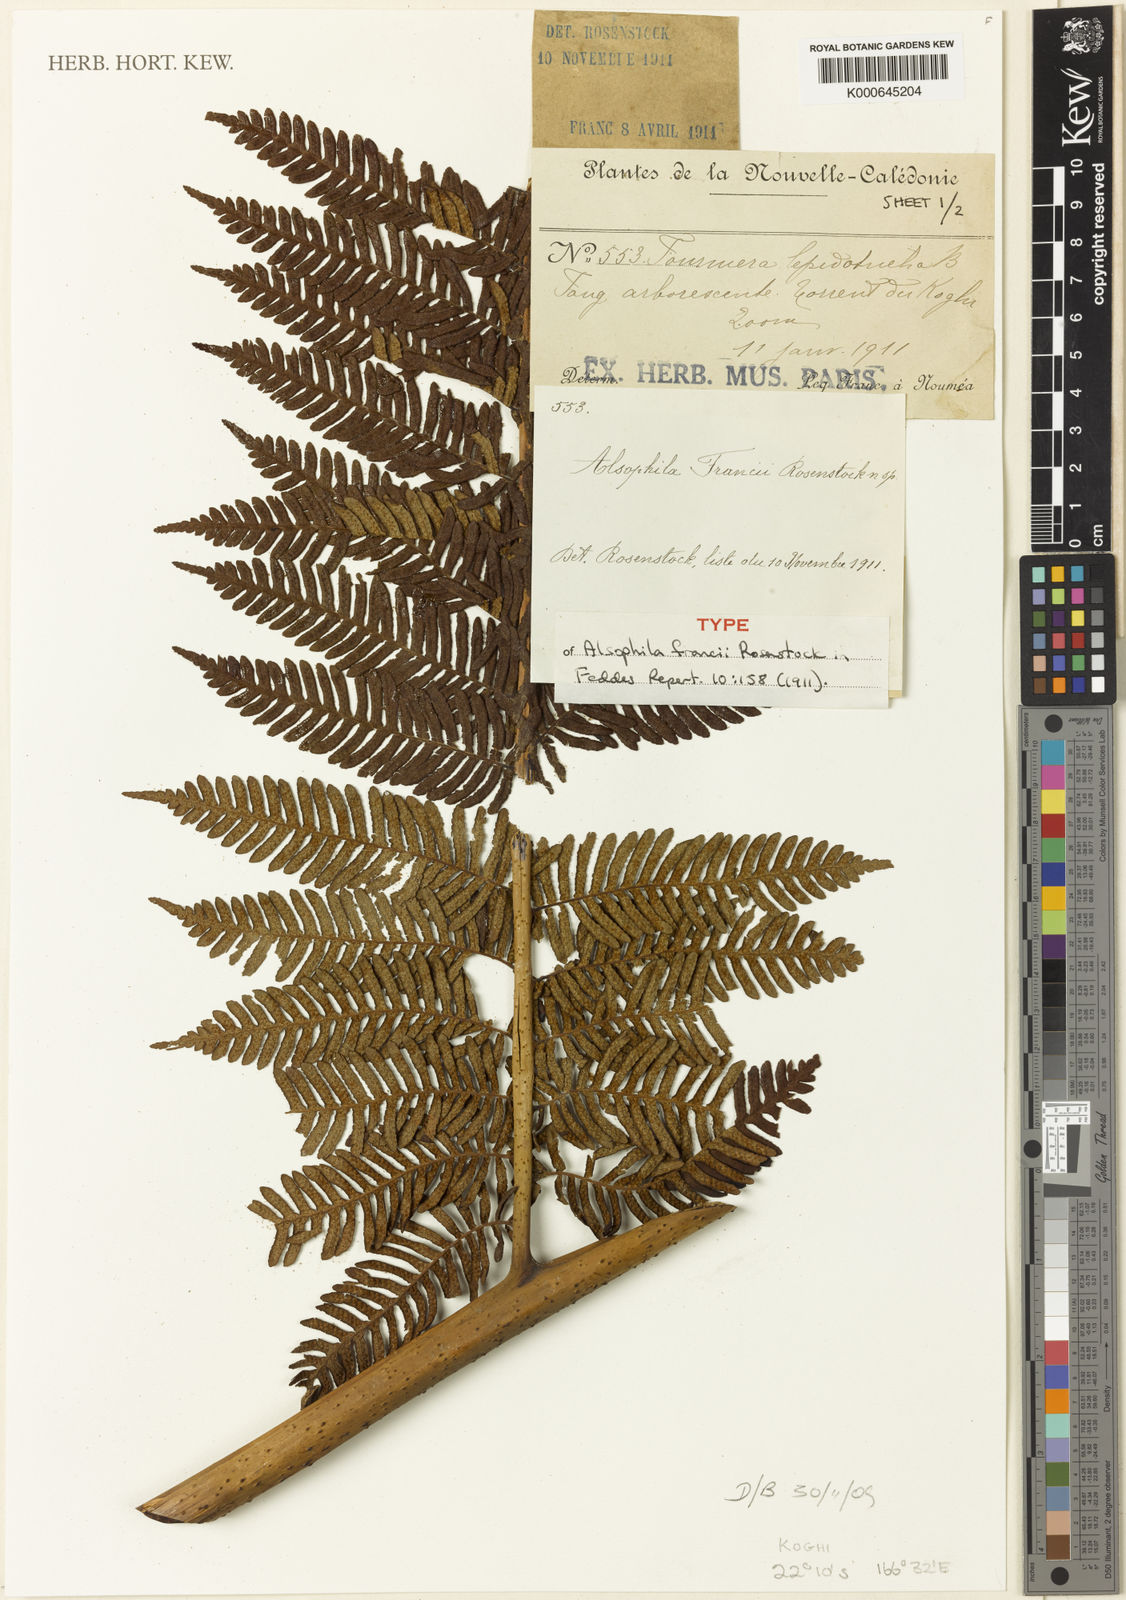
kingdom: Plantae
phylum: Tracheophyta
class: Polypodiopsida
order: Cyatheales
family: Cyatheaceae
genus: Sphaeropteris
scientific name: Sphaeropteris intermedia
